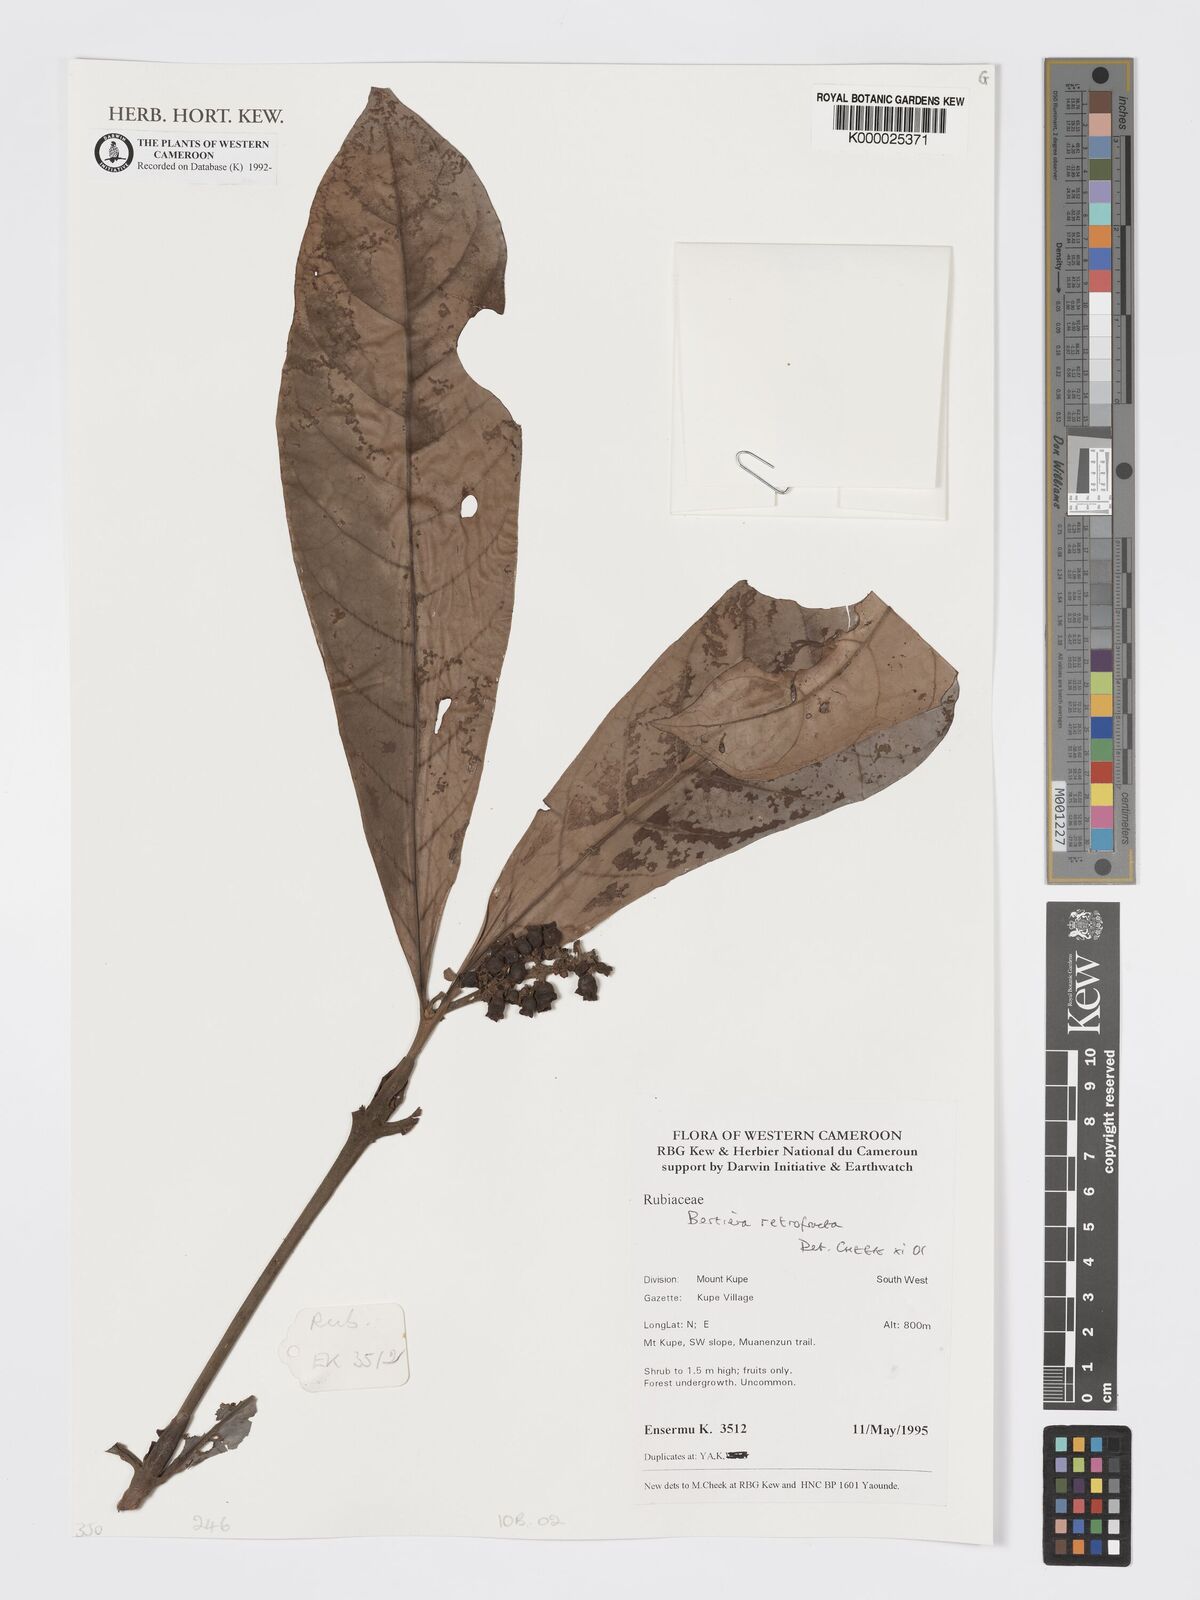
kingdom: Plantae
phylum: Tracheophyta
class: Magnoliopsida
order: Gentianales
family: Rubiaceae
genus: Bertiera
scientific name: Bertiera retrofracta
